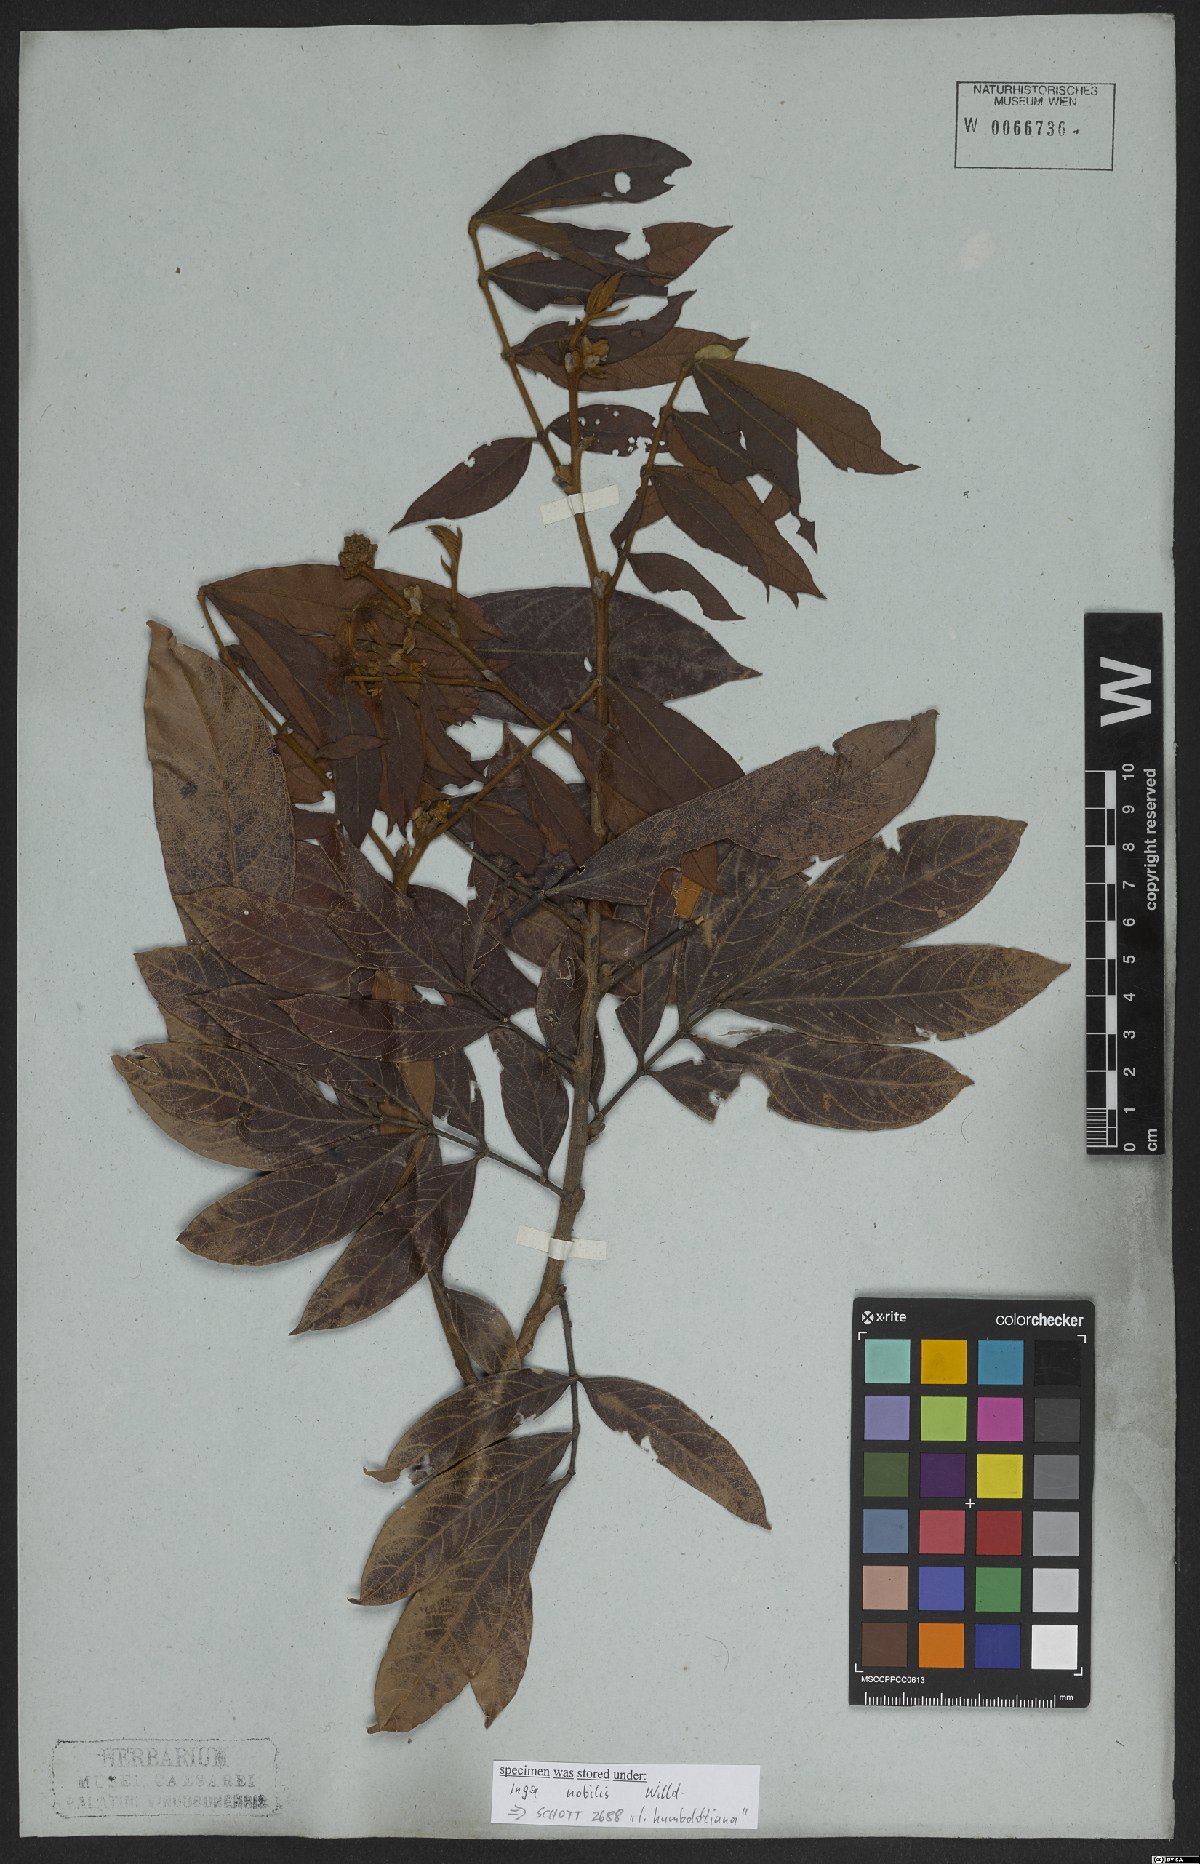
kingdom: Plantae
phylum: Tracheophyta
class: Magnoliopsida
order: Fabales
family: Fabaceae
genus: Inga
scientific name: Inga nobilis
